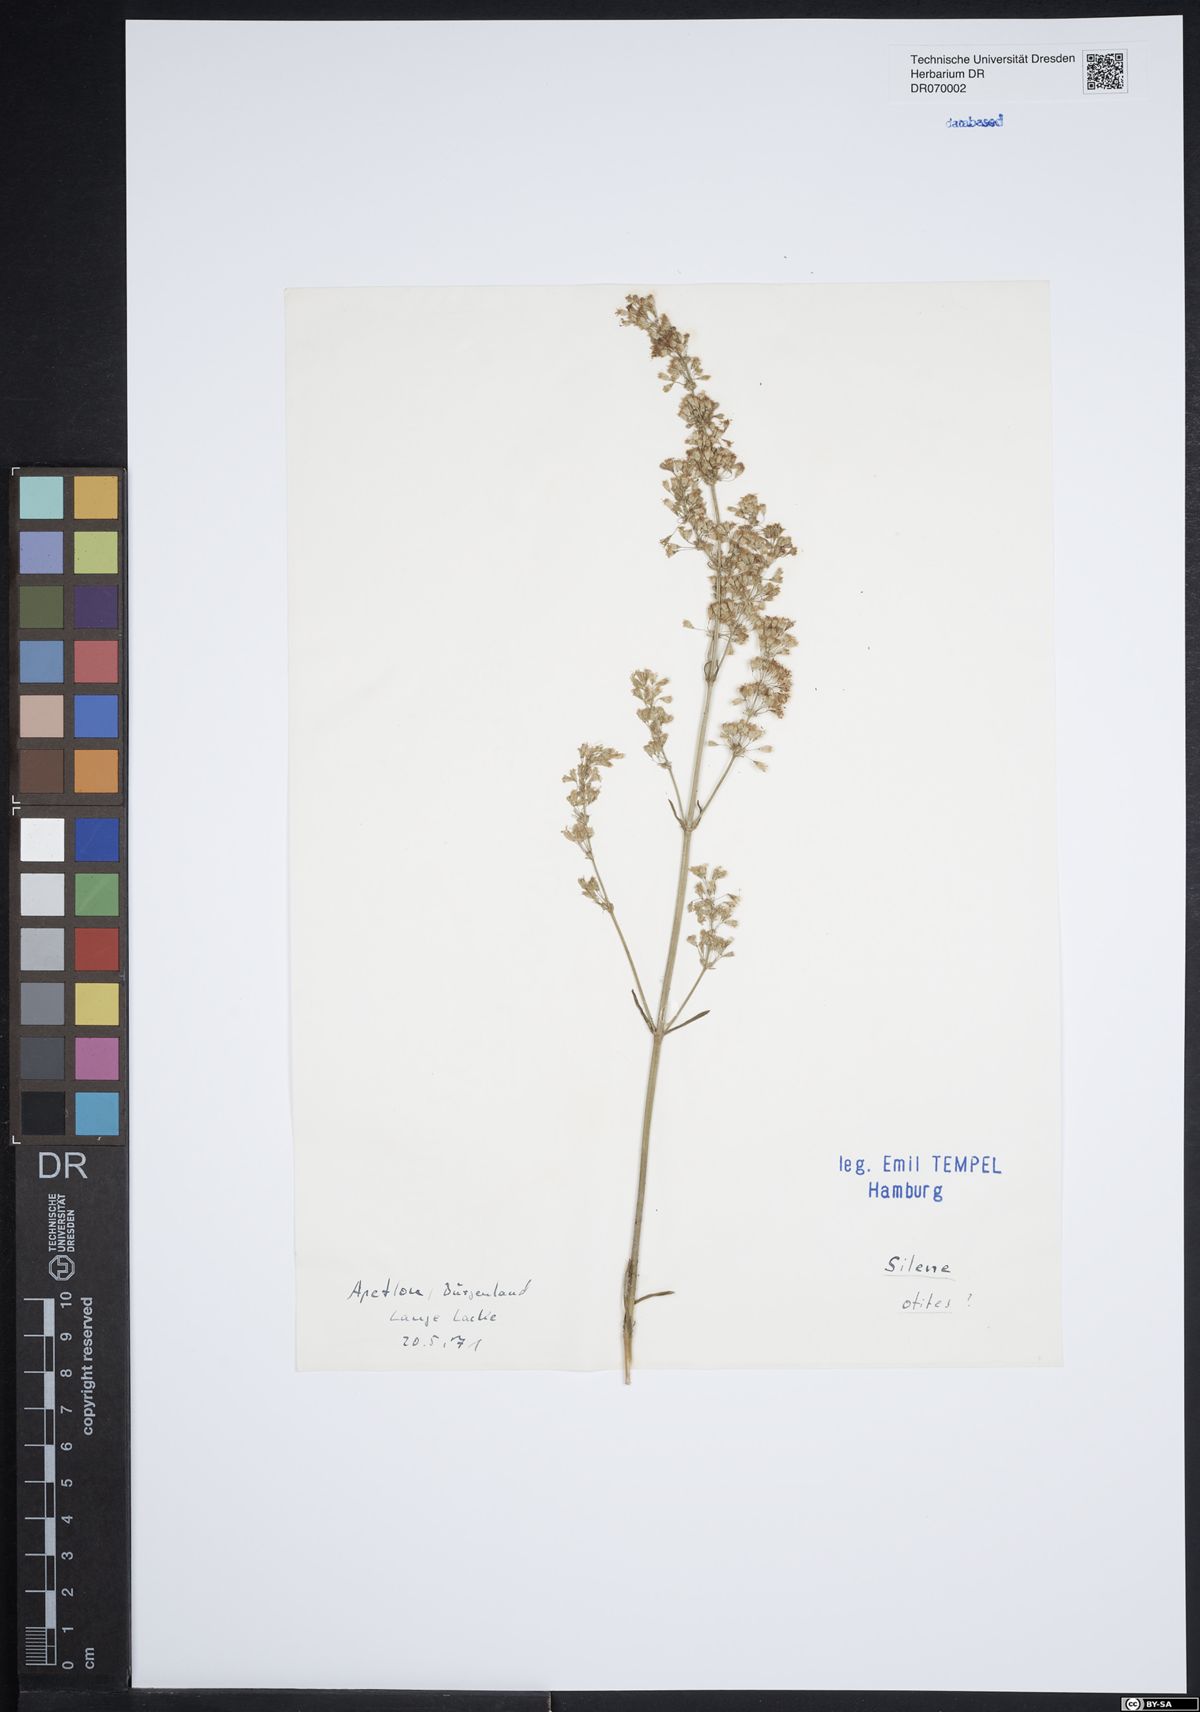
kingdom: Plantae
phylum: Tracheophyta
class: Magnoliopsida
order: Caryophyllales
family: Caryophyllaceae
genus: Silene
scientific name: Silene otites
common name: Spanish catchfly
